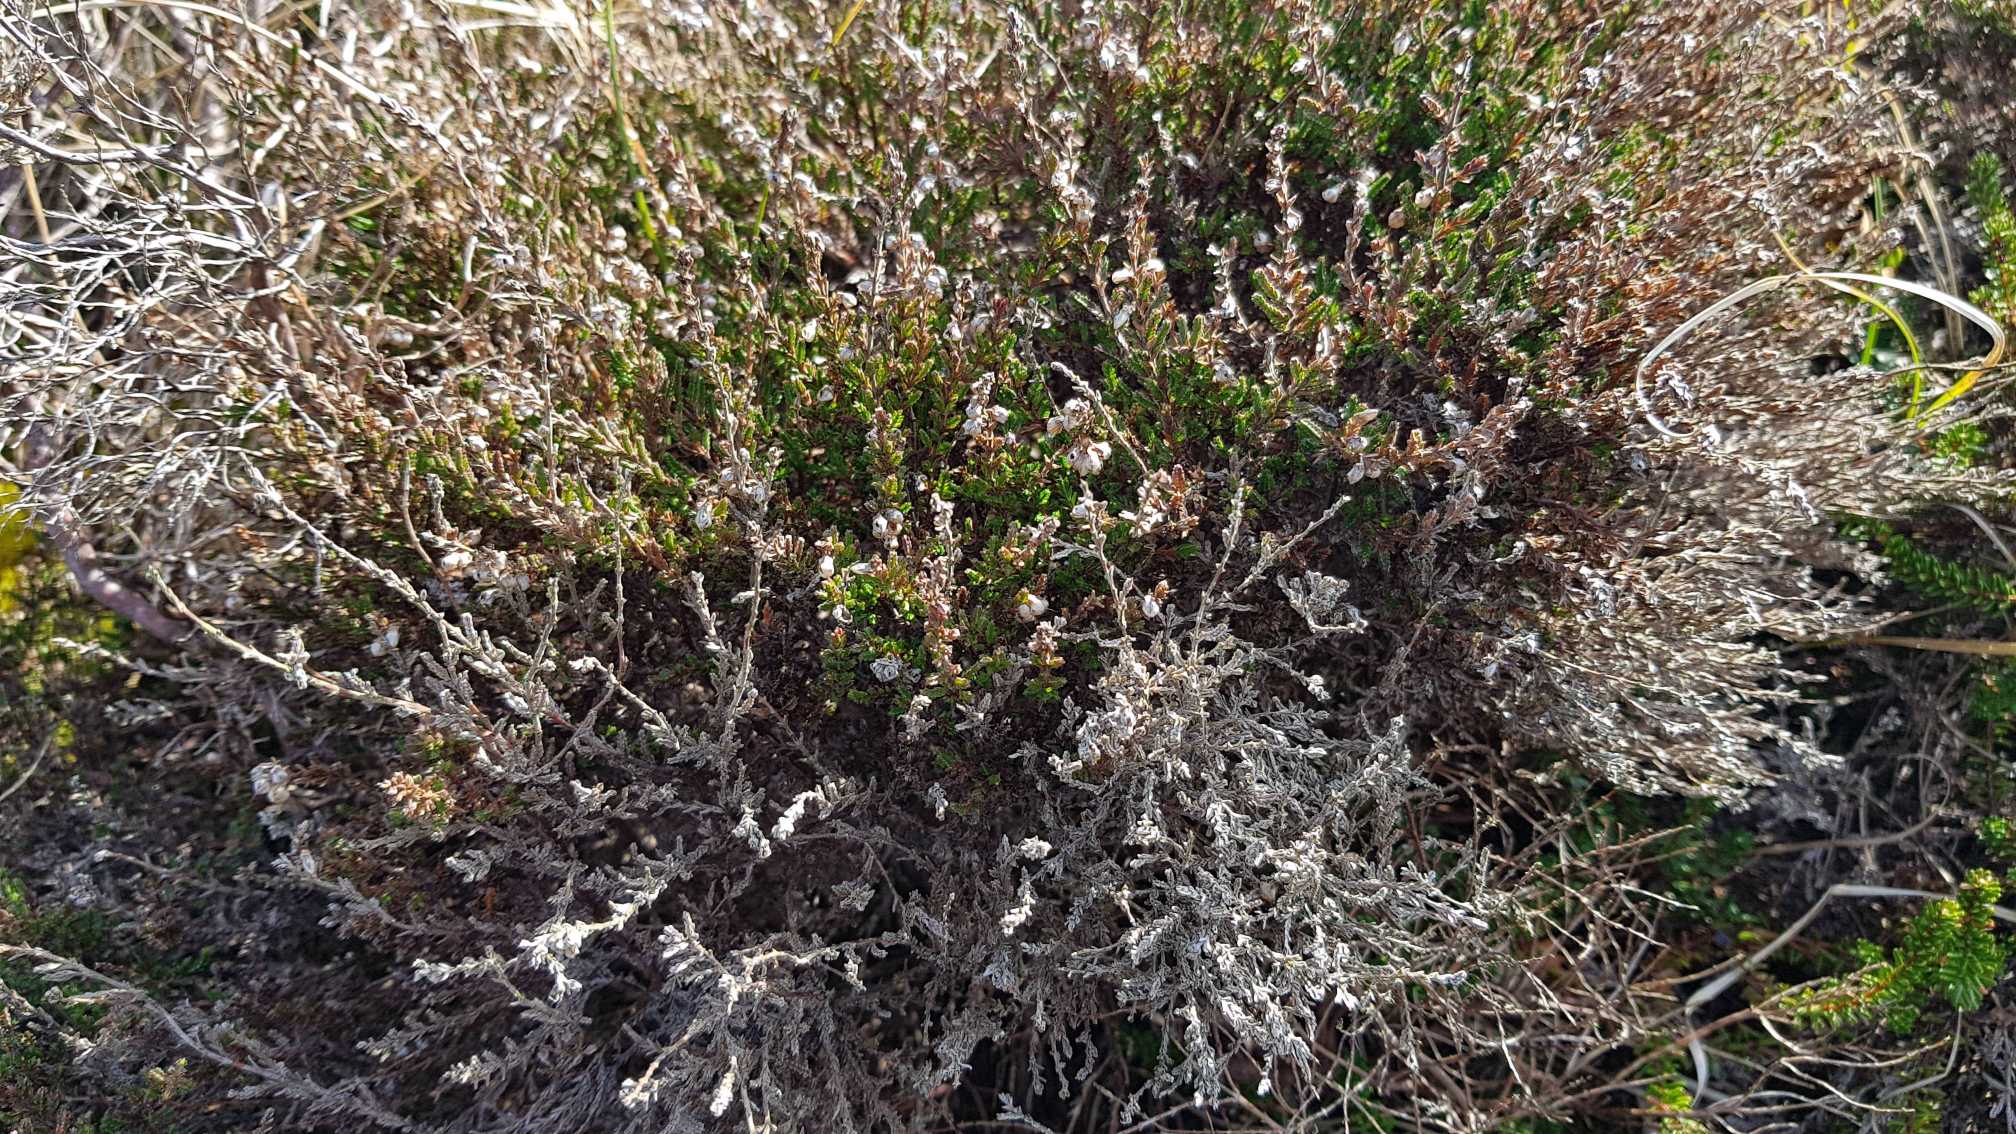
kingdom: Plantae
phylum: Tracheophyta
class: Magnoliopsida
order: Ericales
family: Ericaceae
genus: Calluna
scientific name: Calluna vulgaris
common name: Hedelyng
